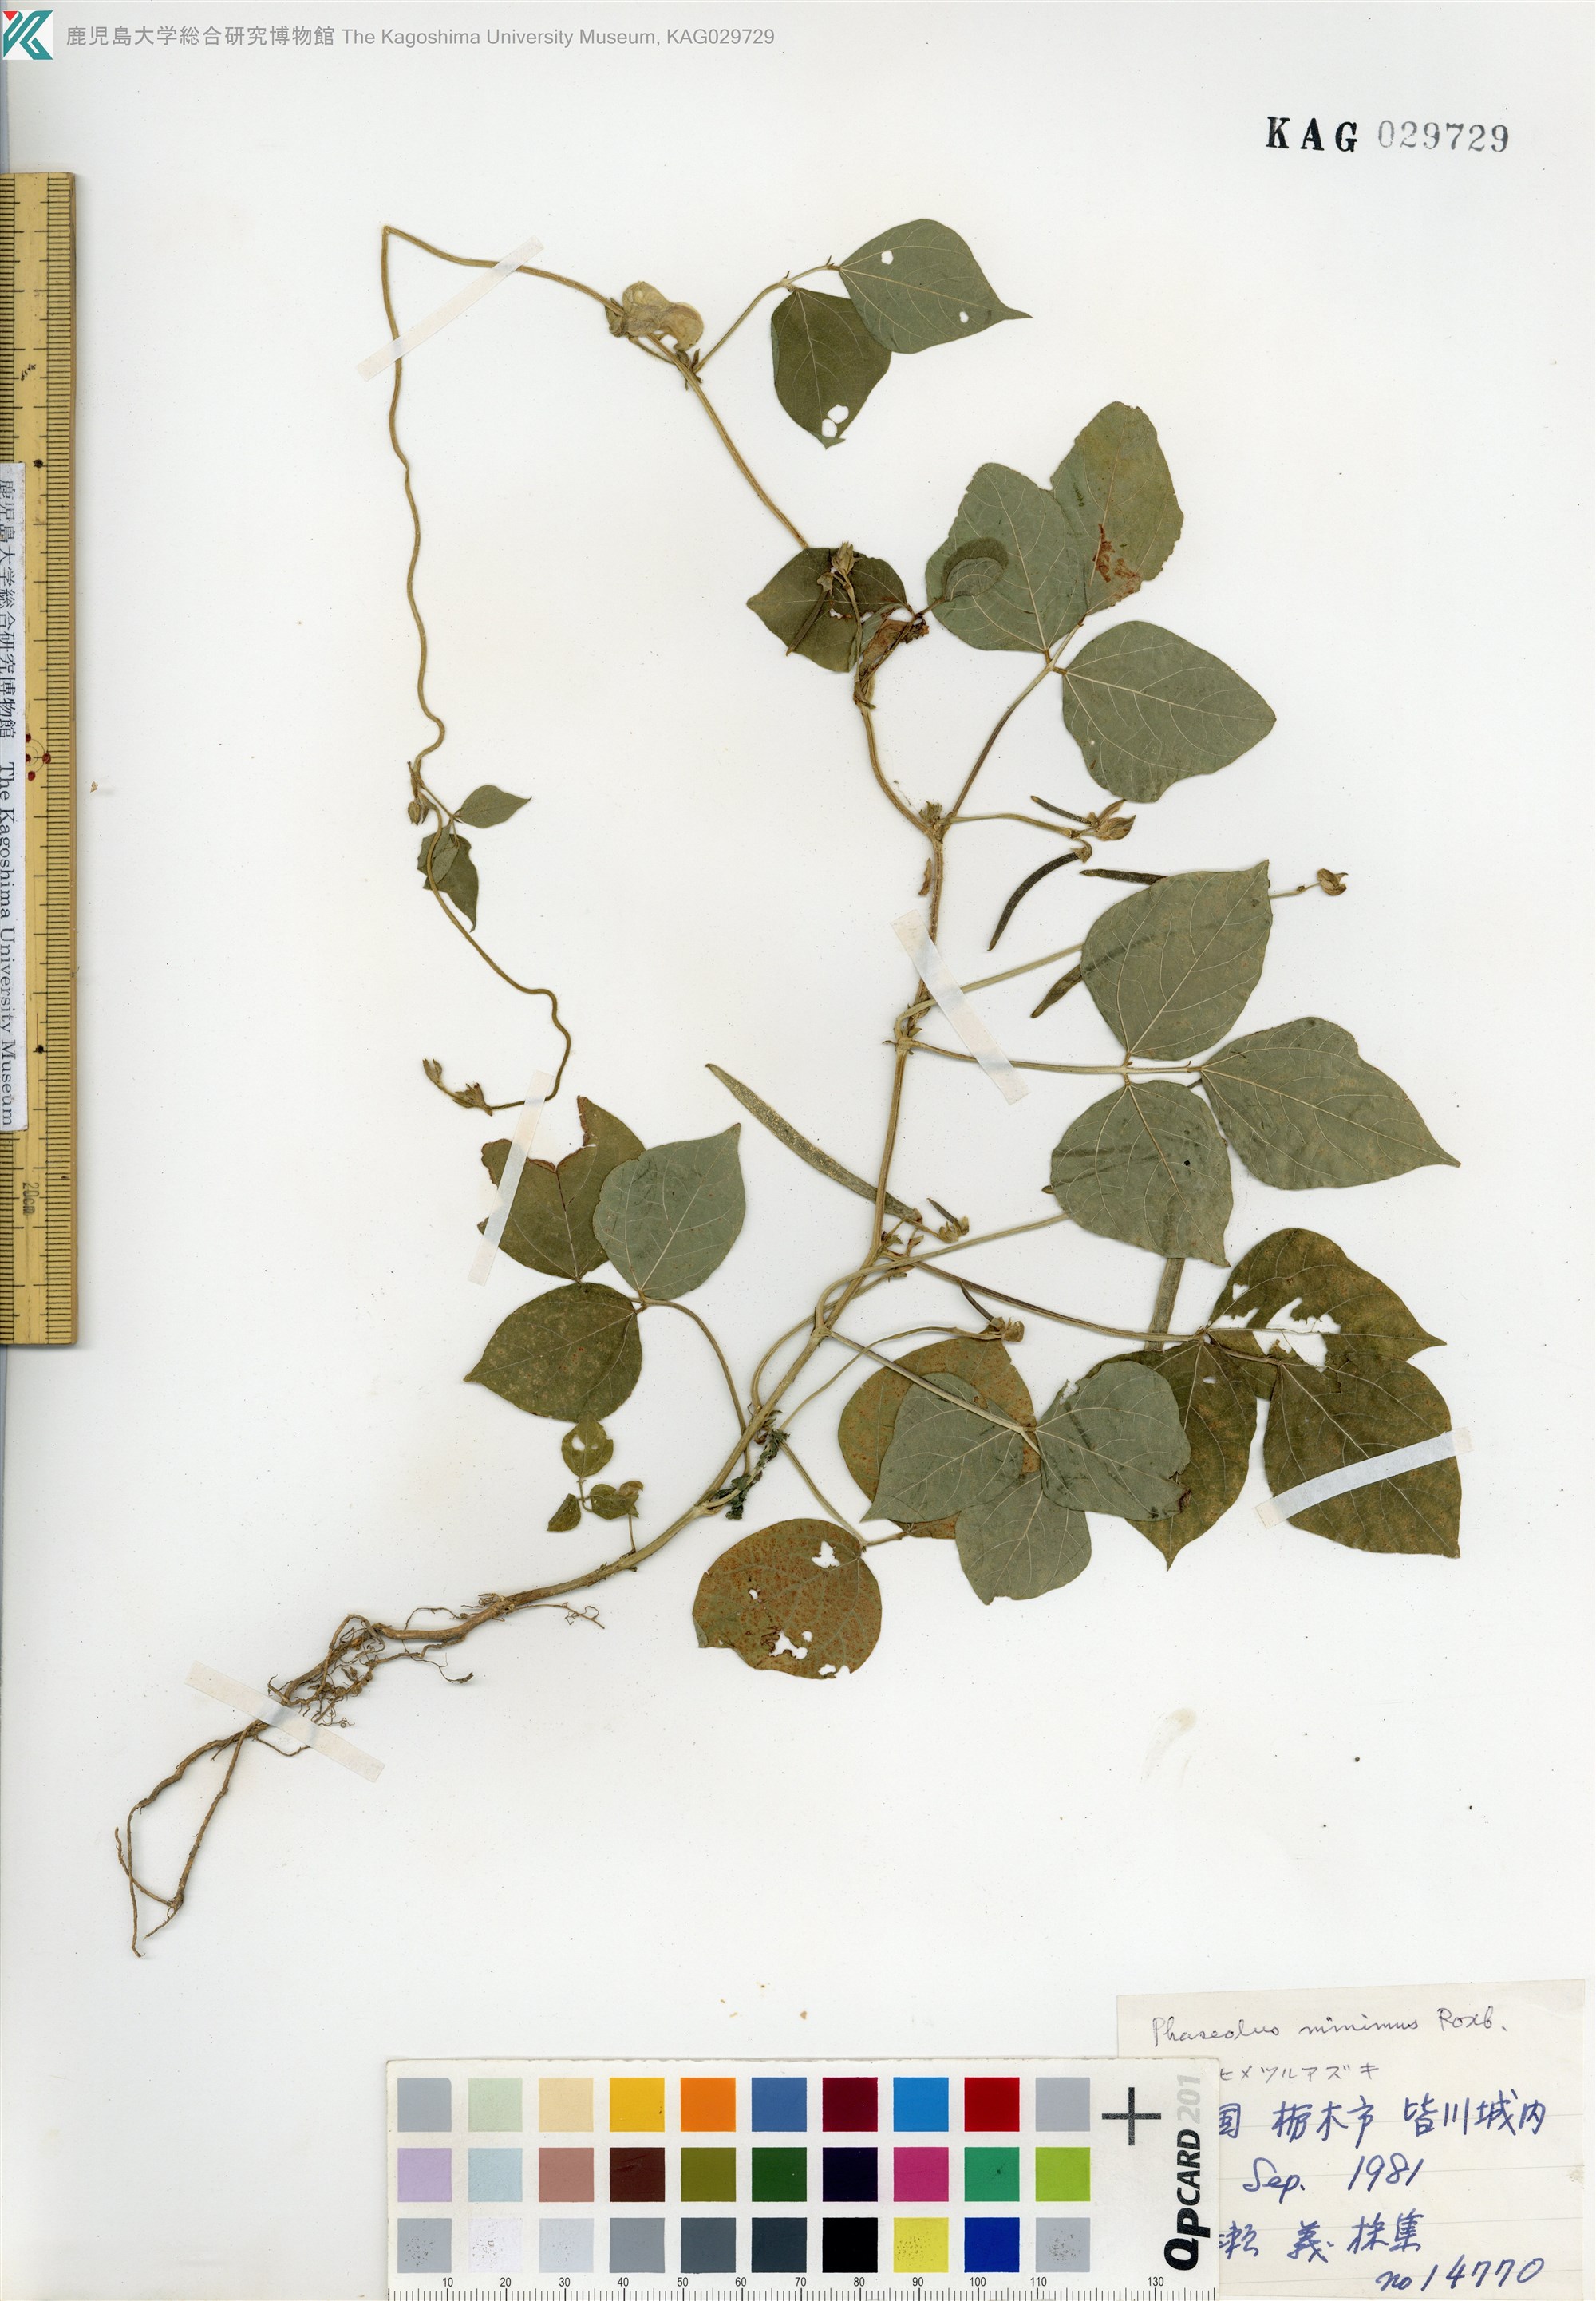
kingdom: Plantae
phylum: Tracheophyta
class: Magnoliopsida
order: Fabales
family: Fabaceae
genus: Vigna
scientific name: Vigna minima
